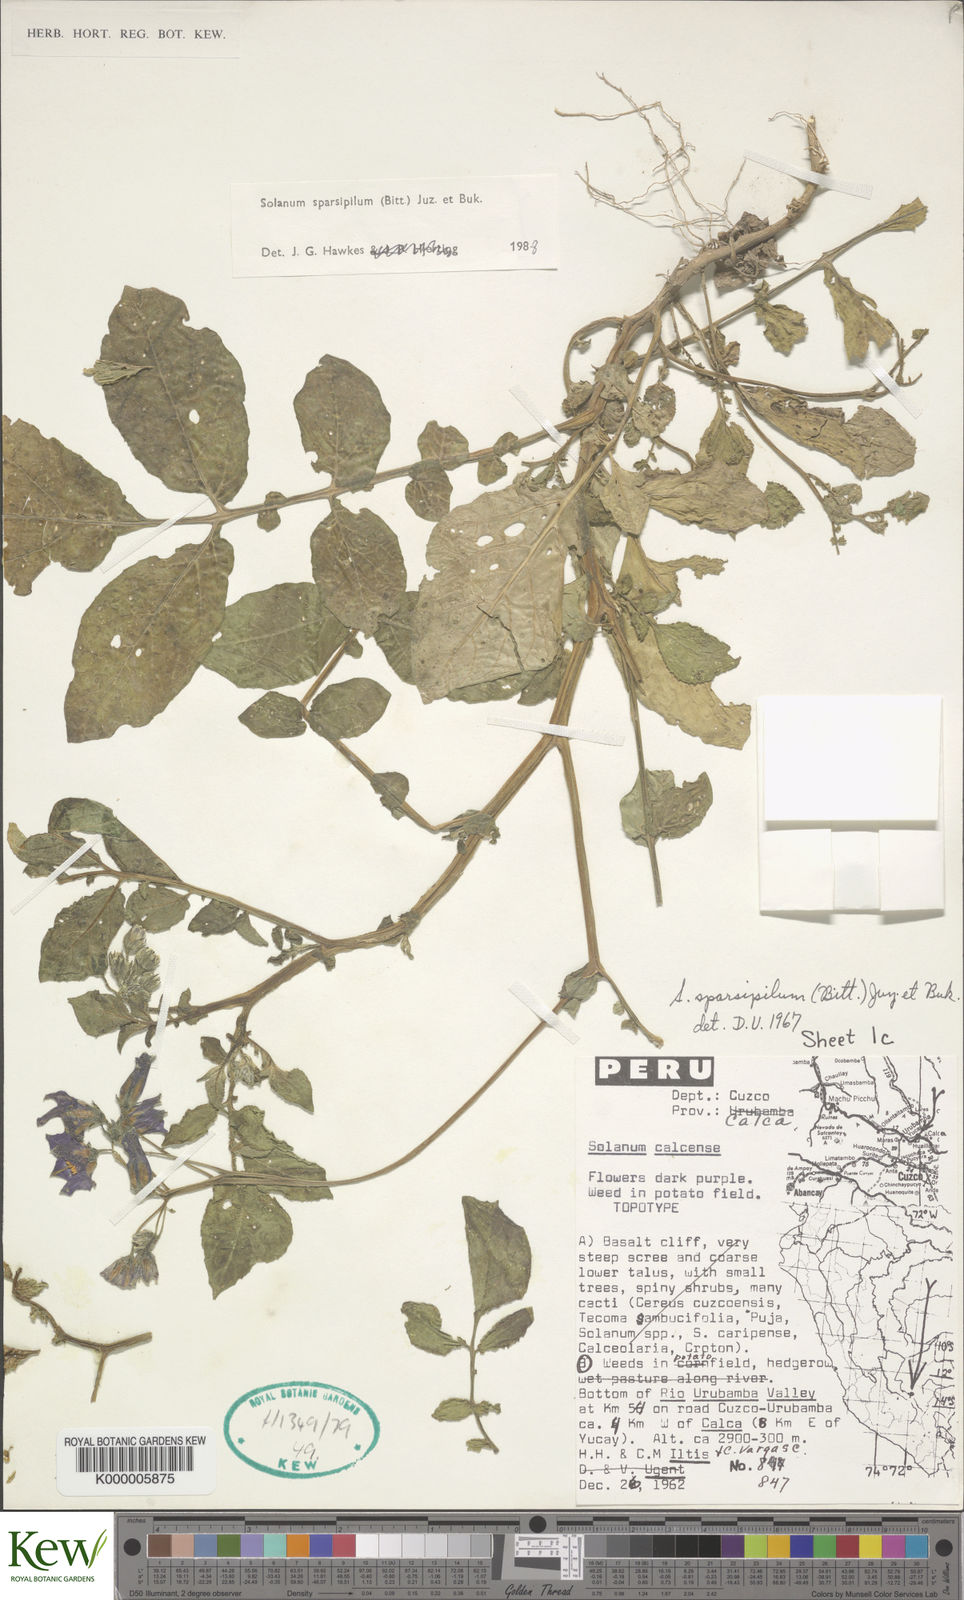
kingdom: Plantae
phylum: Tracheophyta
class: Magnoliopsida
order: Solanales
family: Solanaceae
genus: Solanum
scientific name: Solanum brevicaule
